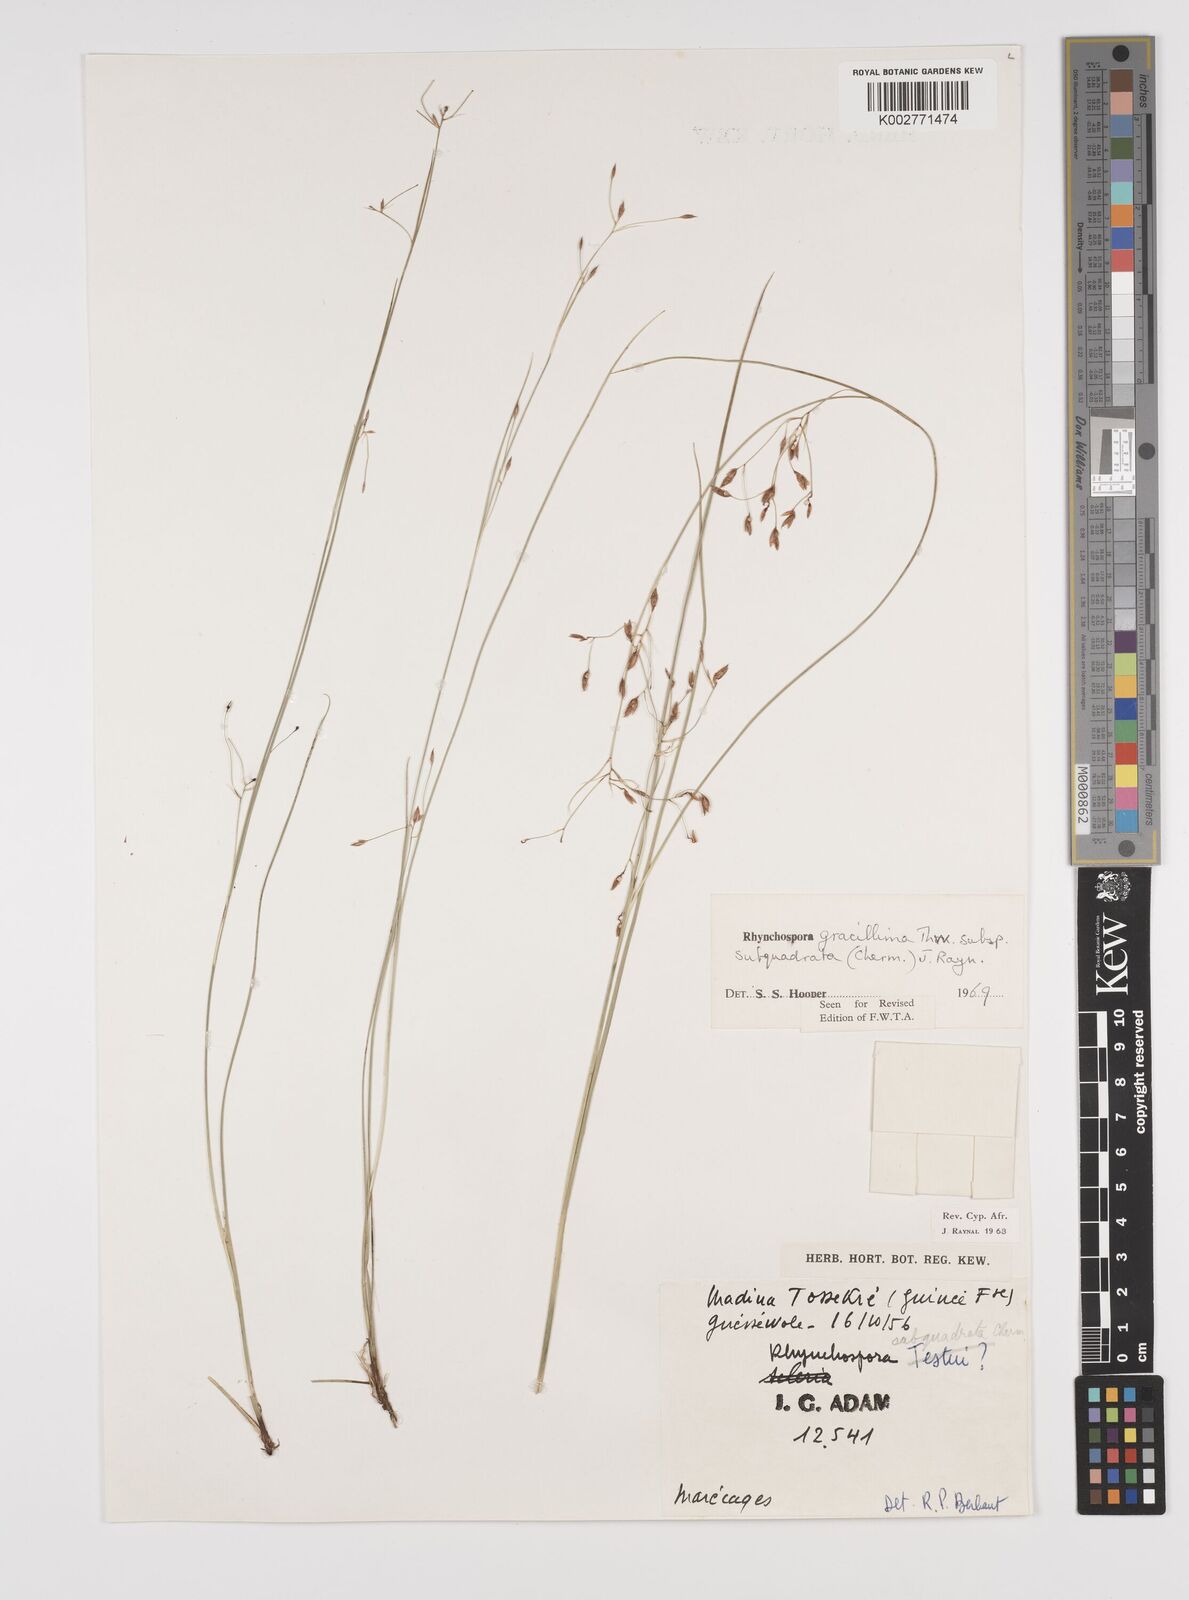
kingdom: Plantae
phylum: Tracheophyta
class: Liliopsida
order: Poales
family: Cyperaceae
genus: Rhynchospora
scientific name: Rhynchospora gracillima
